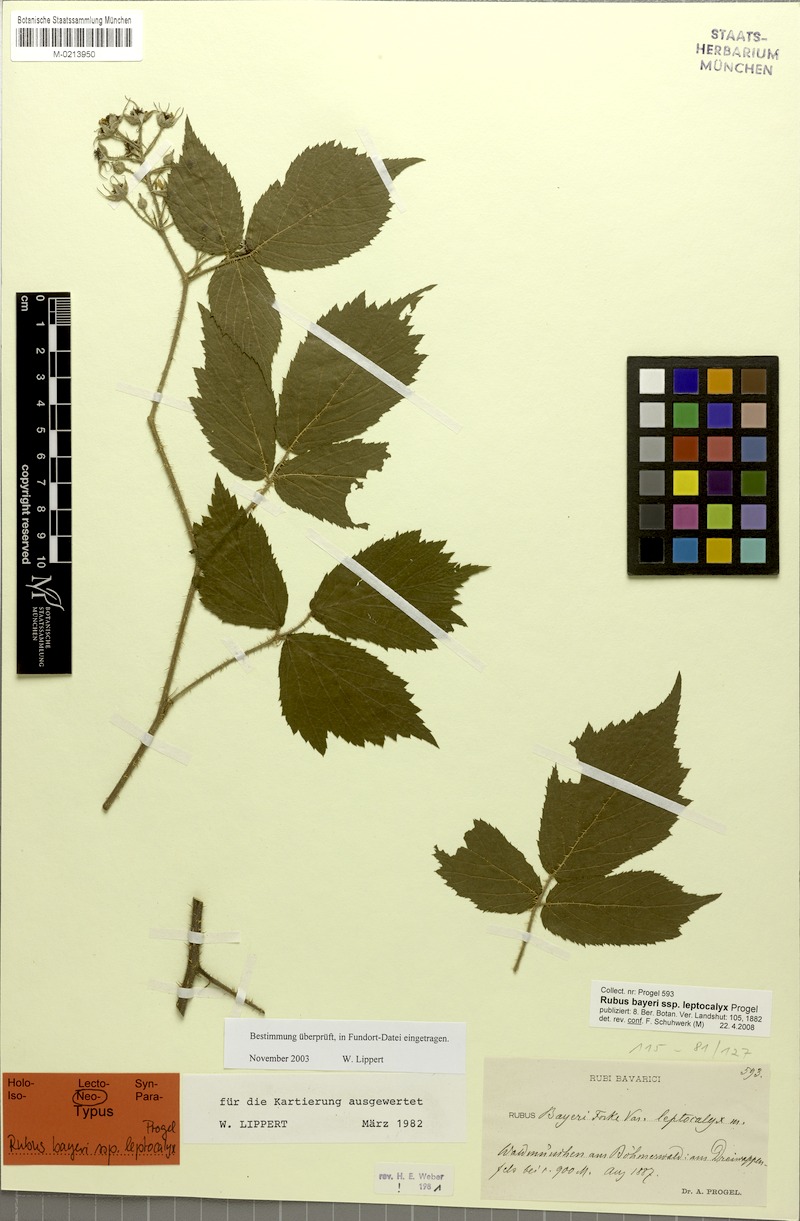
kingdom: Plantae
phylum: Tracheophyta
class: Magnoliopsida
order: Rosales
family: Rosaceae
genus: Rubus
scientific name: Rubus rivularis
